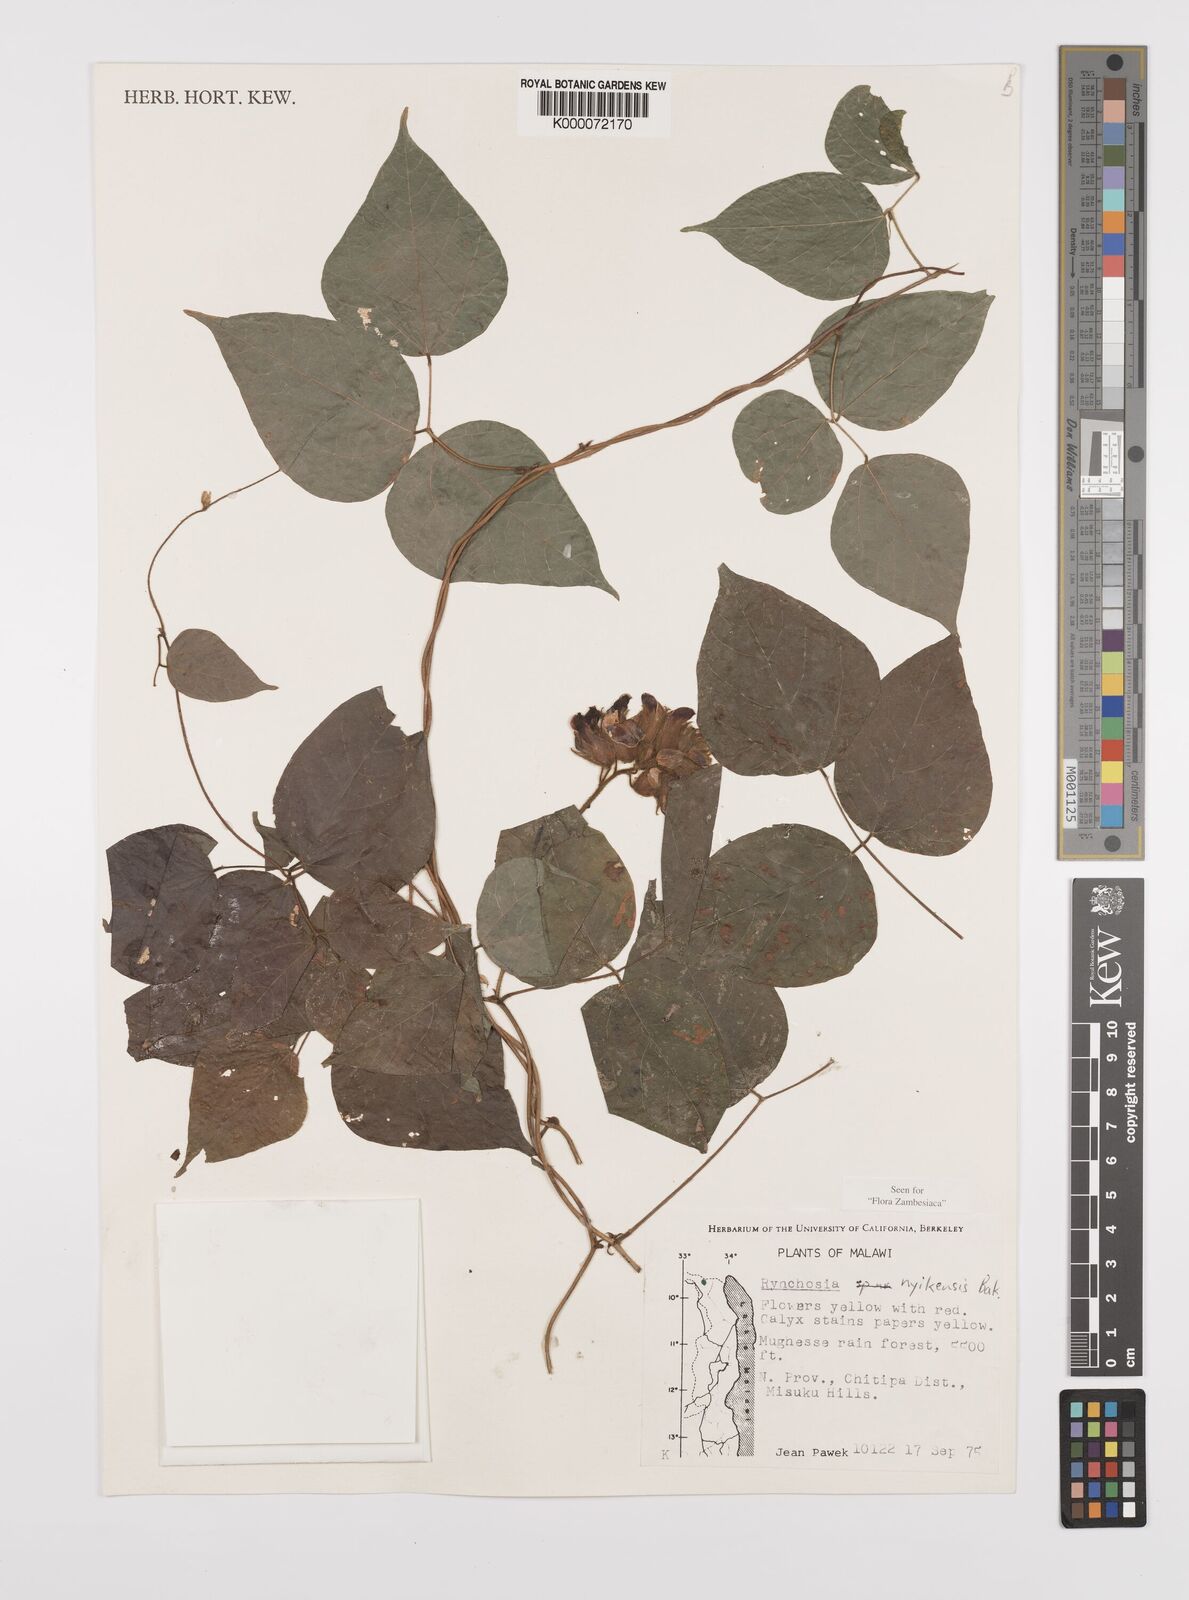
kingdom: Plantae
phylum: Tracheophyta
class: Magnoliopsida
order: Fabales
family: Fabaceae
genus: Rhynchosia
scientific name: Rhynchosia nyikensis
